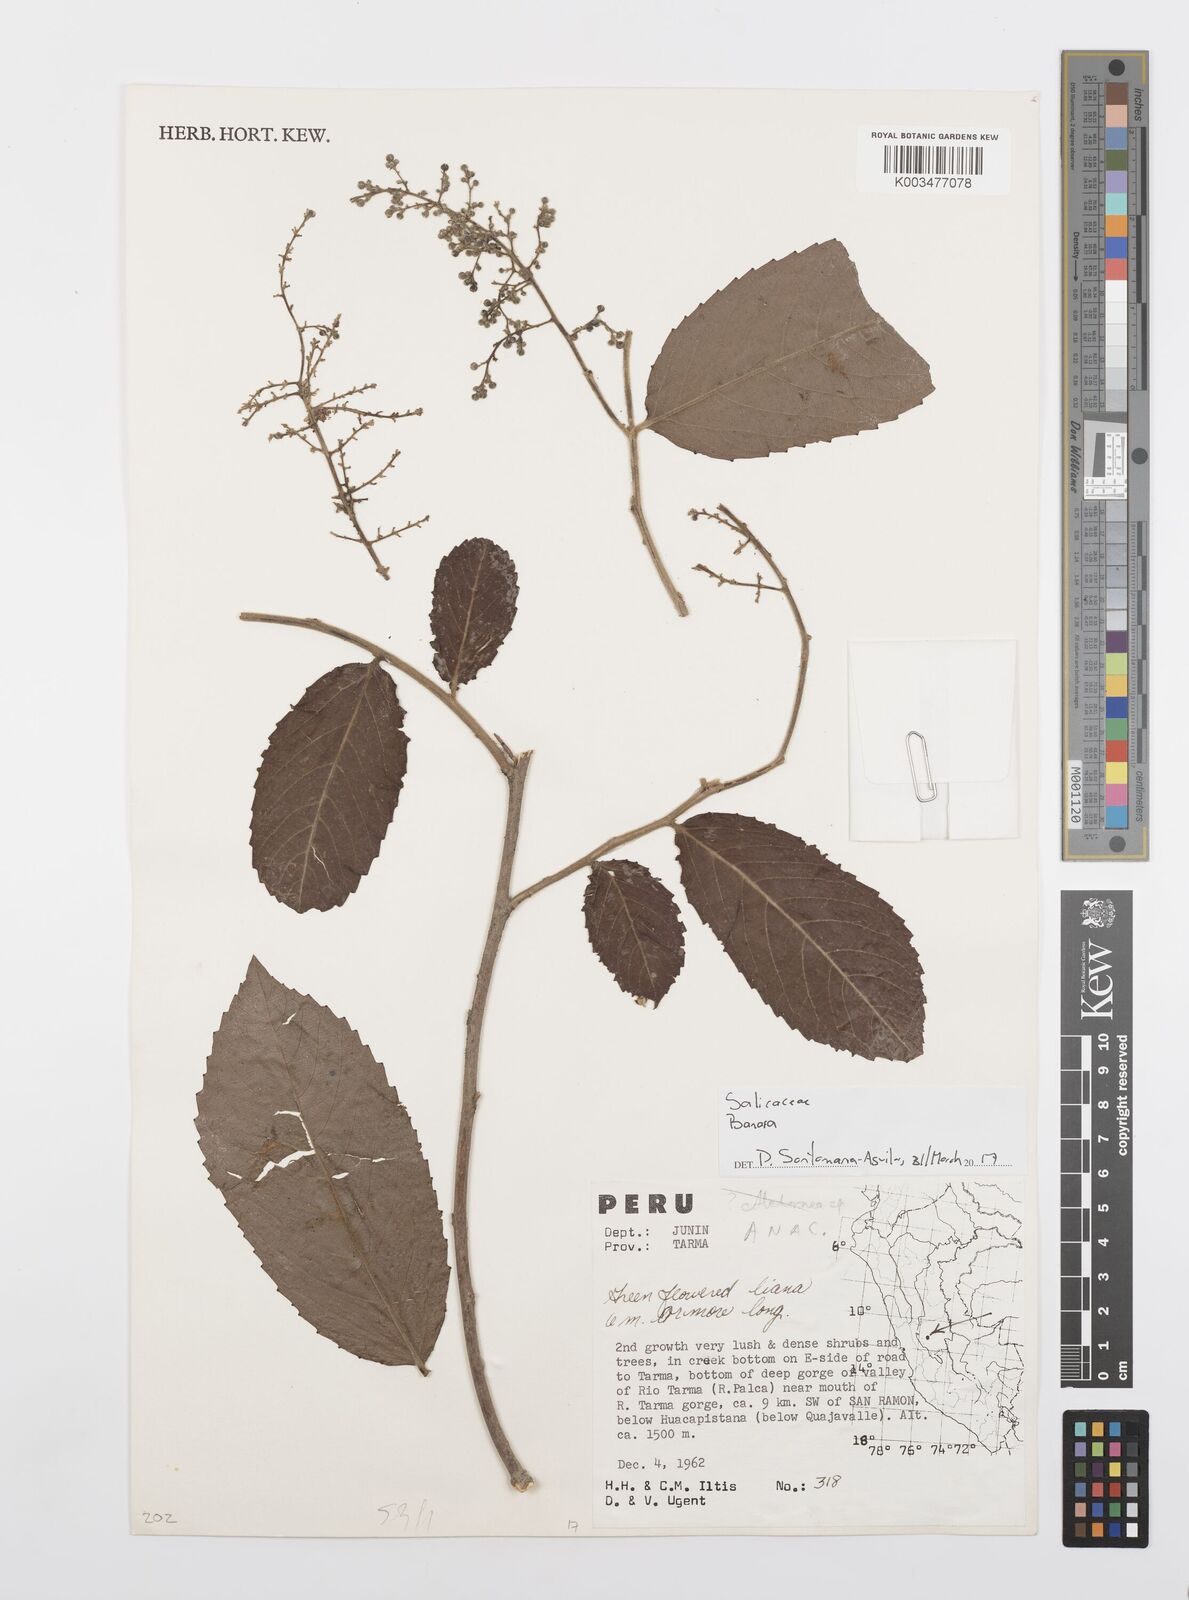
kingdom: Plantae
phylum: Tracheophyta
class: Magnoliopsida
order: Malpighiales
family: Salicaceae
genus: Banara
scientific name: Banara
